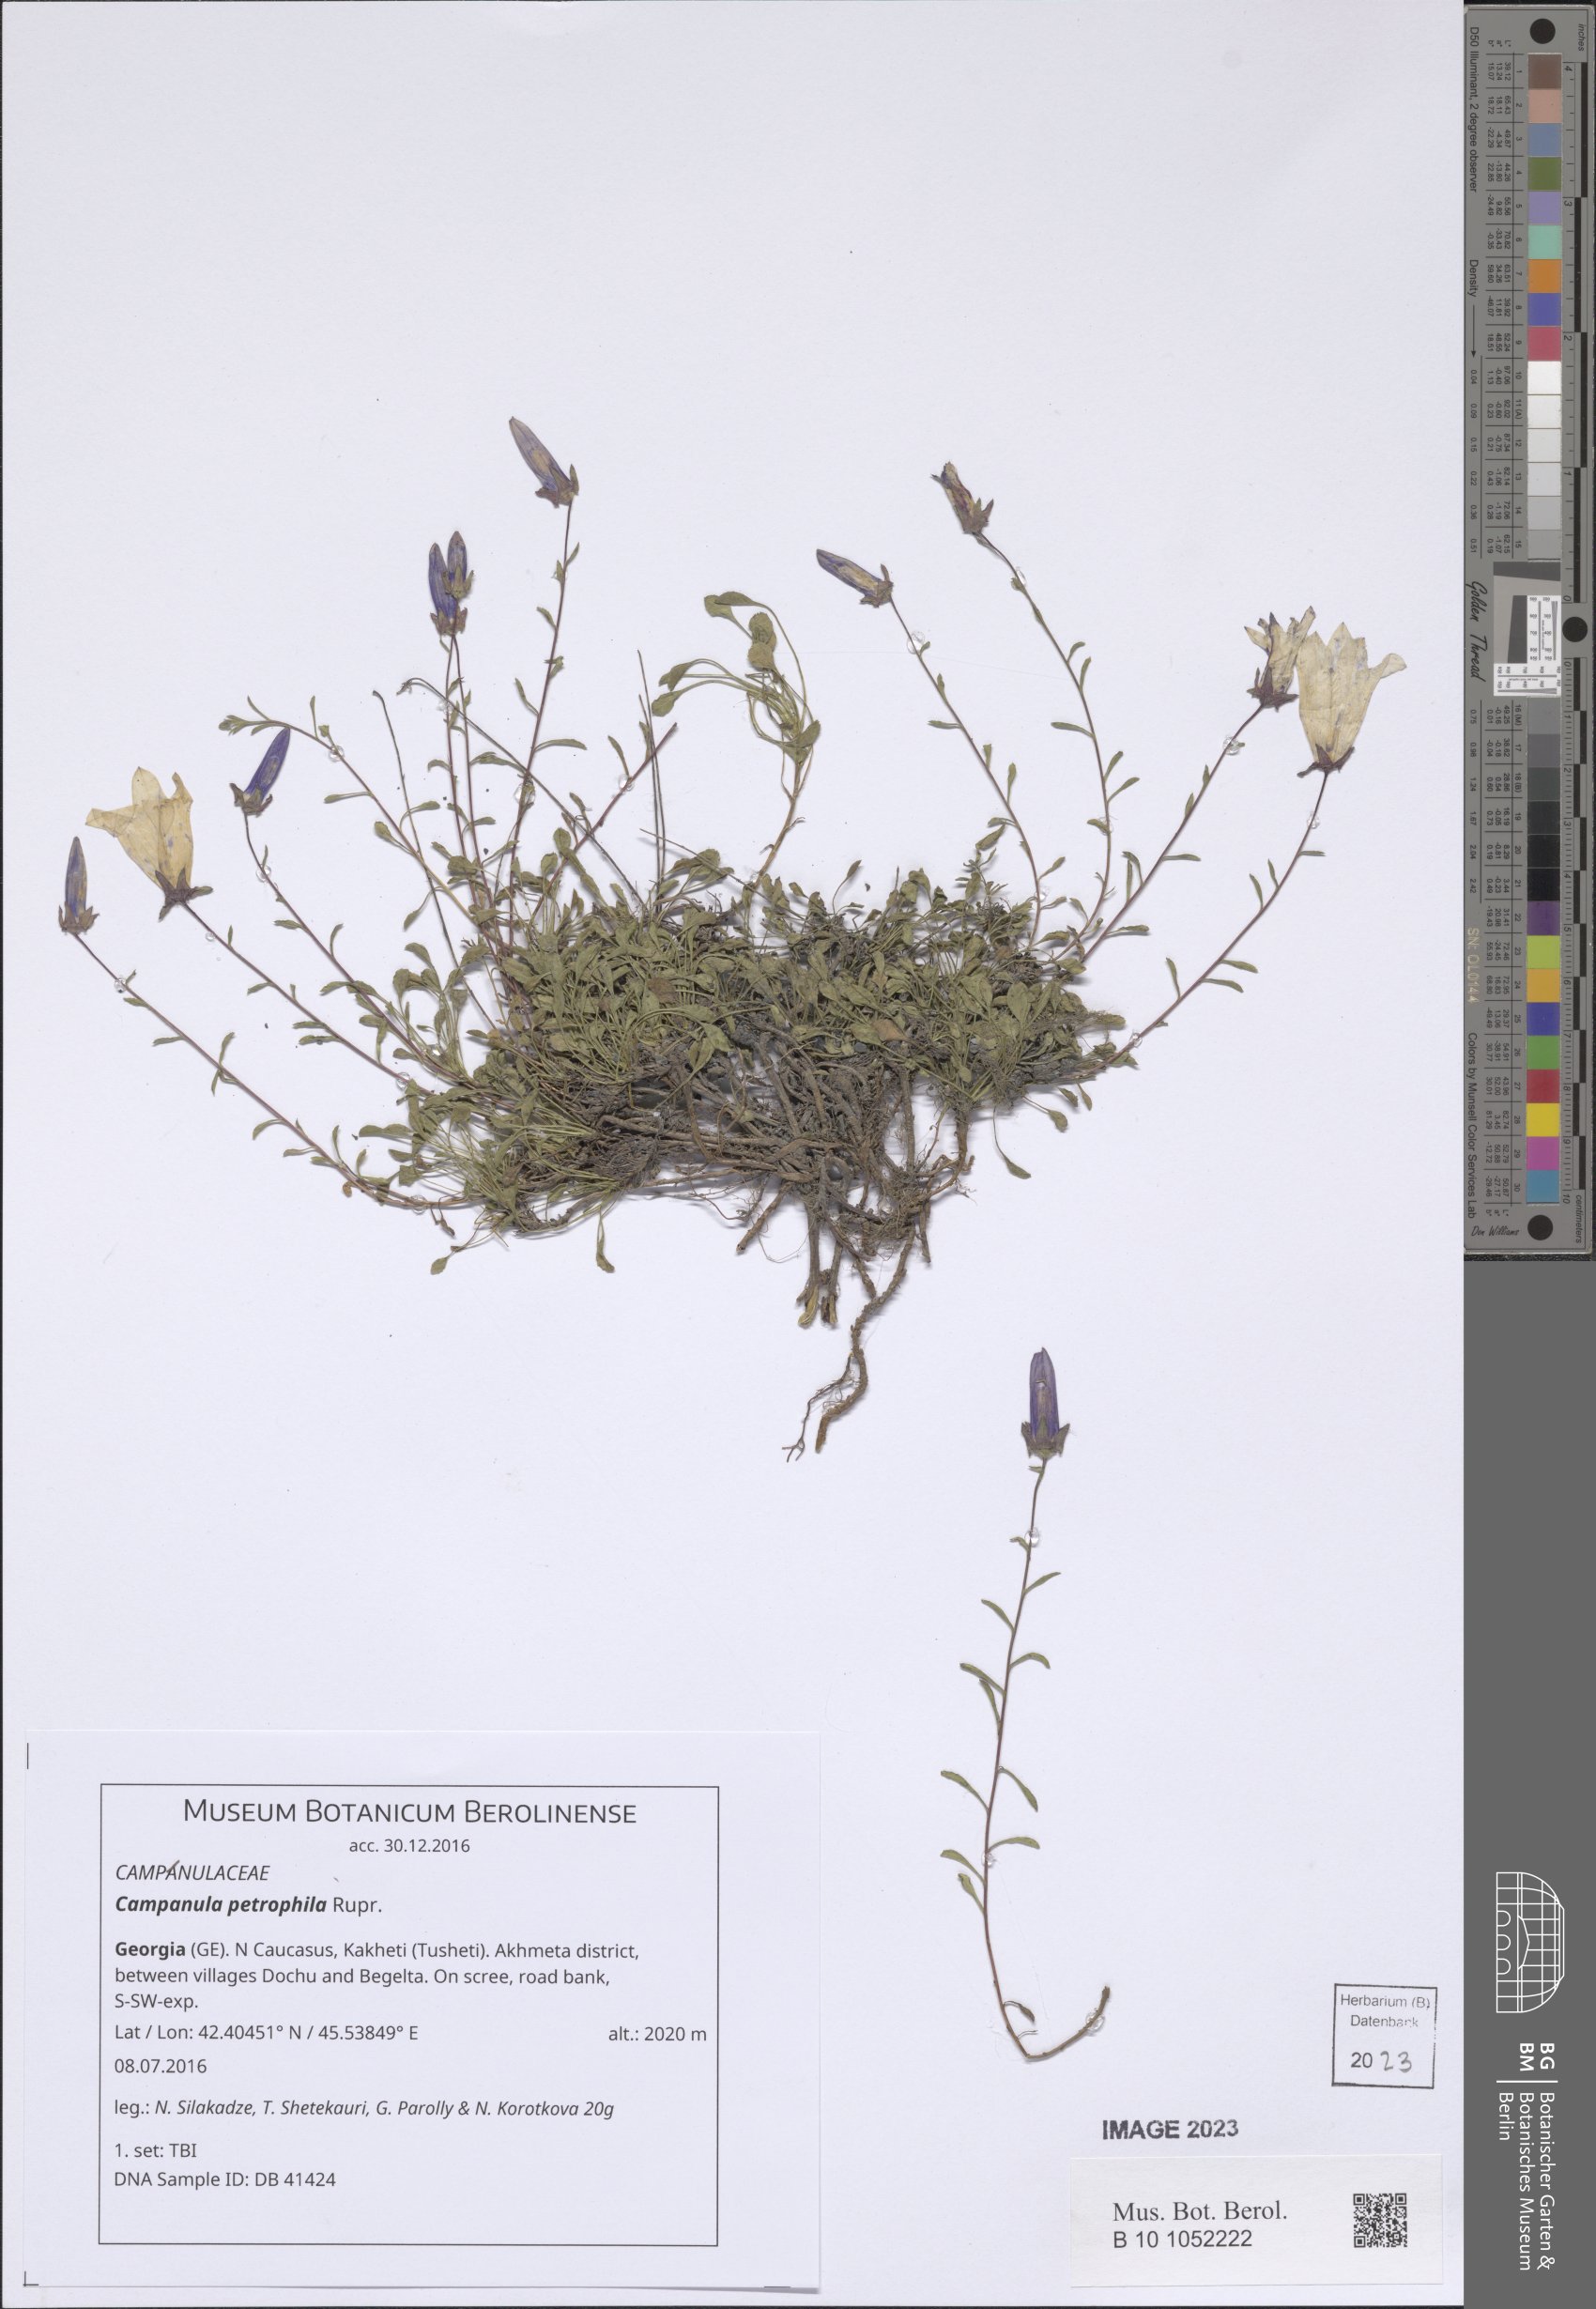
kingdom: Plantae
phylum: Tracheophyta
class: Magnoliopsida
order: Asterales
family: Campanulaceae
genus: Campanula
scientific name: Campanula petrophila
